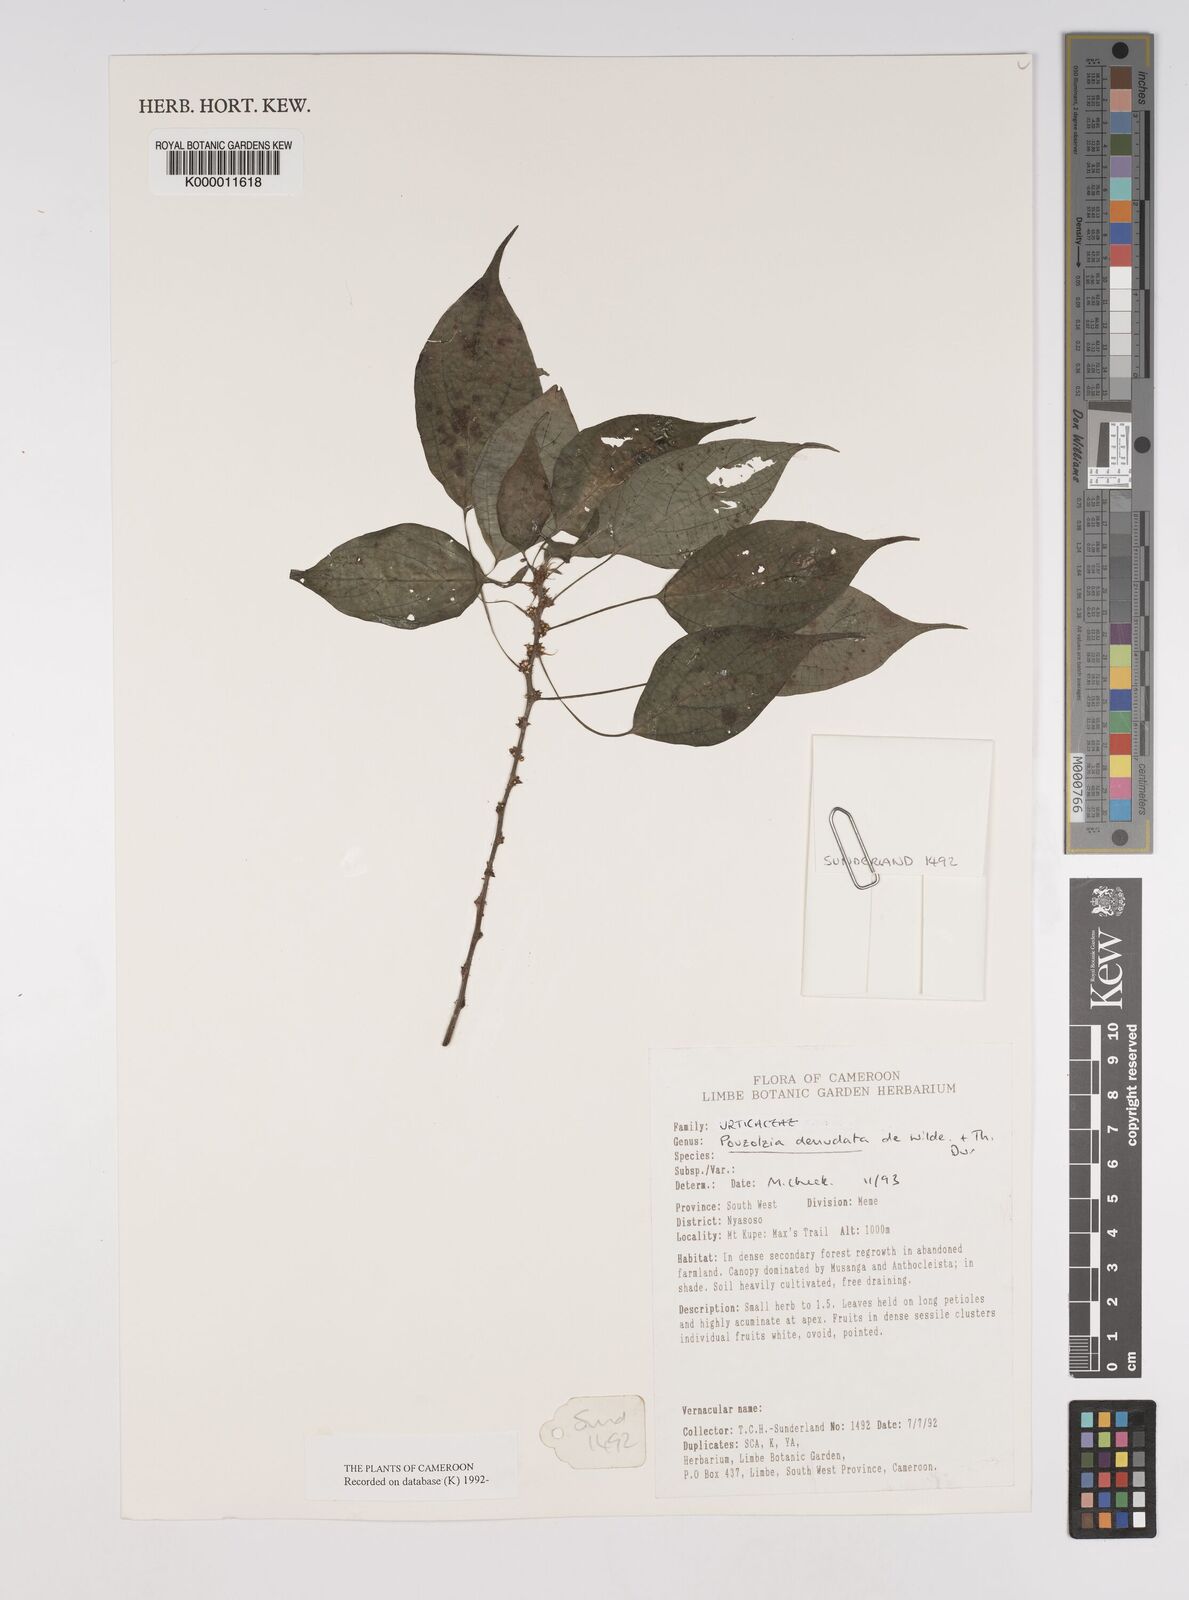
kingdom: Plantae
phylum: Tracheophyta
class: Magnoliopsida
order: Rosales
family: Urticaceae
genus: Pouzolzia
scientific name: Pouzolzia denudata
